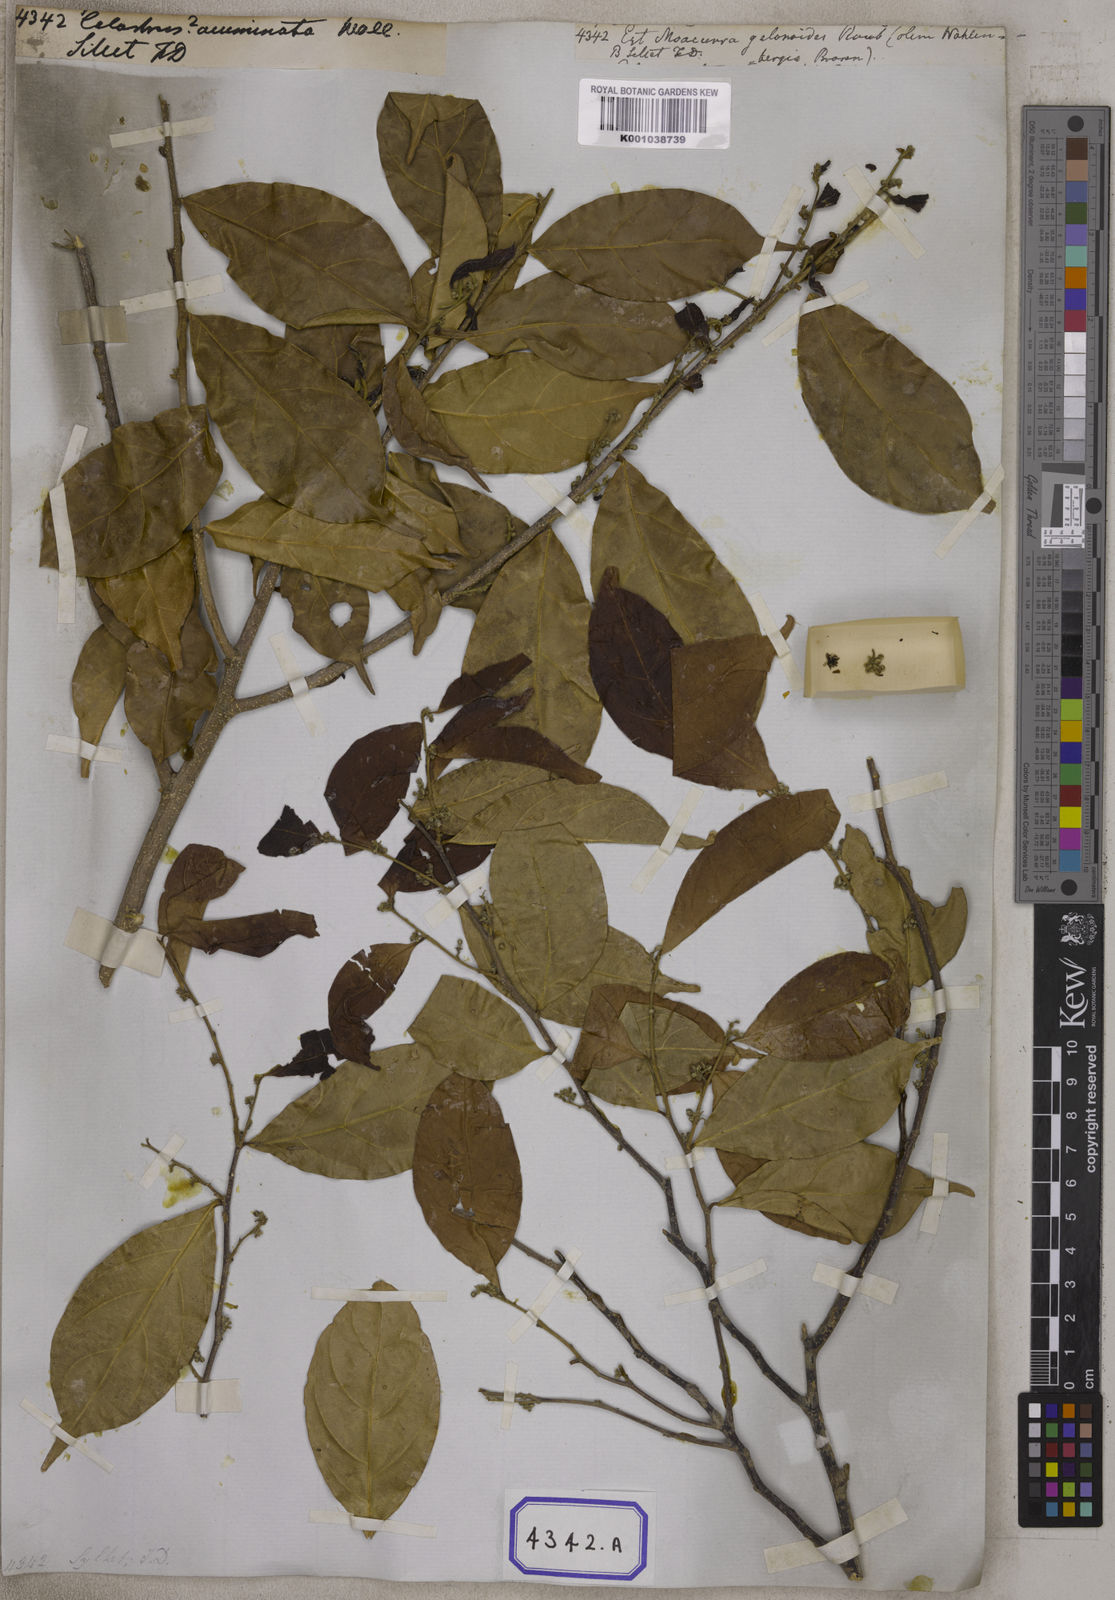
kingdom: Plantae
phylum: Tracheophyta
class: Magnoliopsida
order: Malpighiales
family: Dichapetalaceae
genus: Dichapetalum
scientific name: Dichapetalum gelonioides
